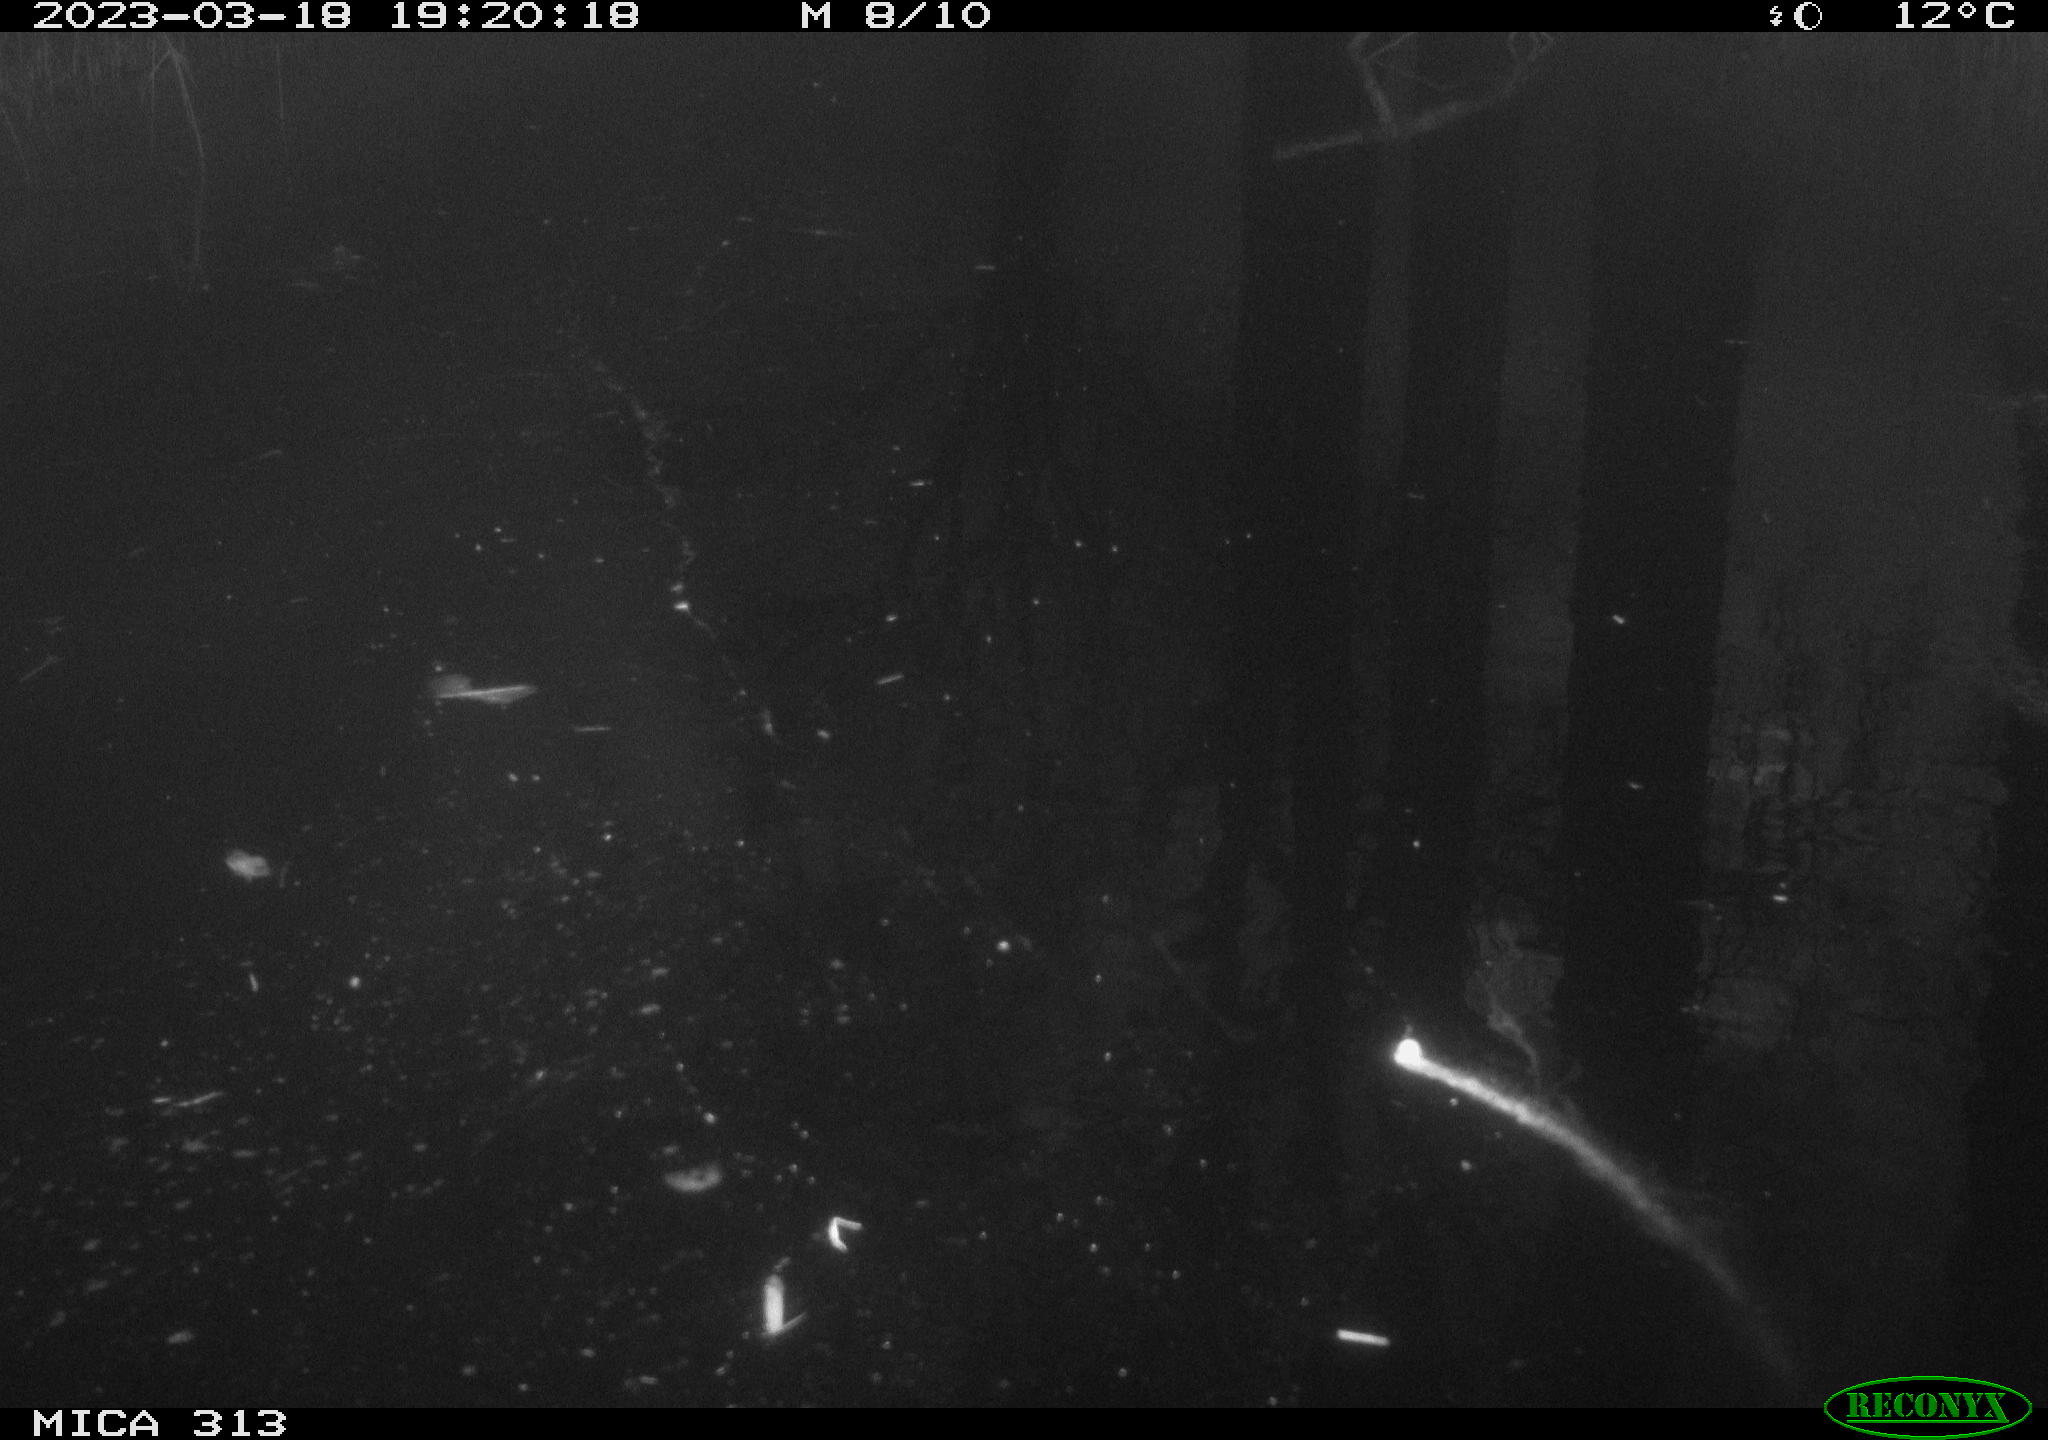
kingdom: Animalia
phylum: Chordata
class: Aves
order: Gruiformes
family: Rallidae
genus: Gallinula
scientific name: Gallinula chloropus
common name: Common moorhen
